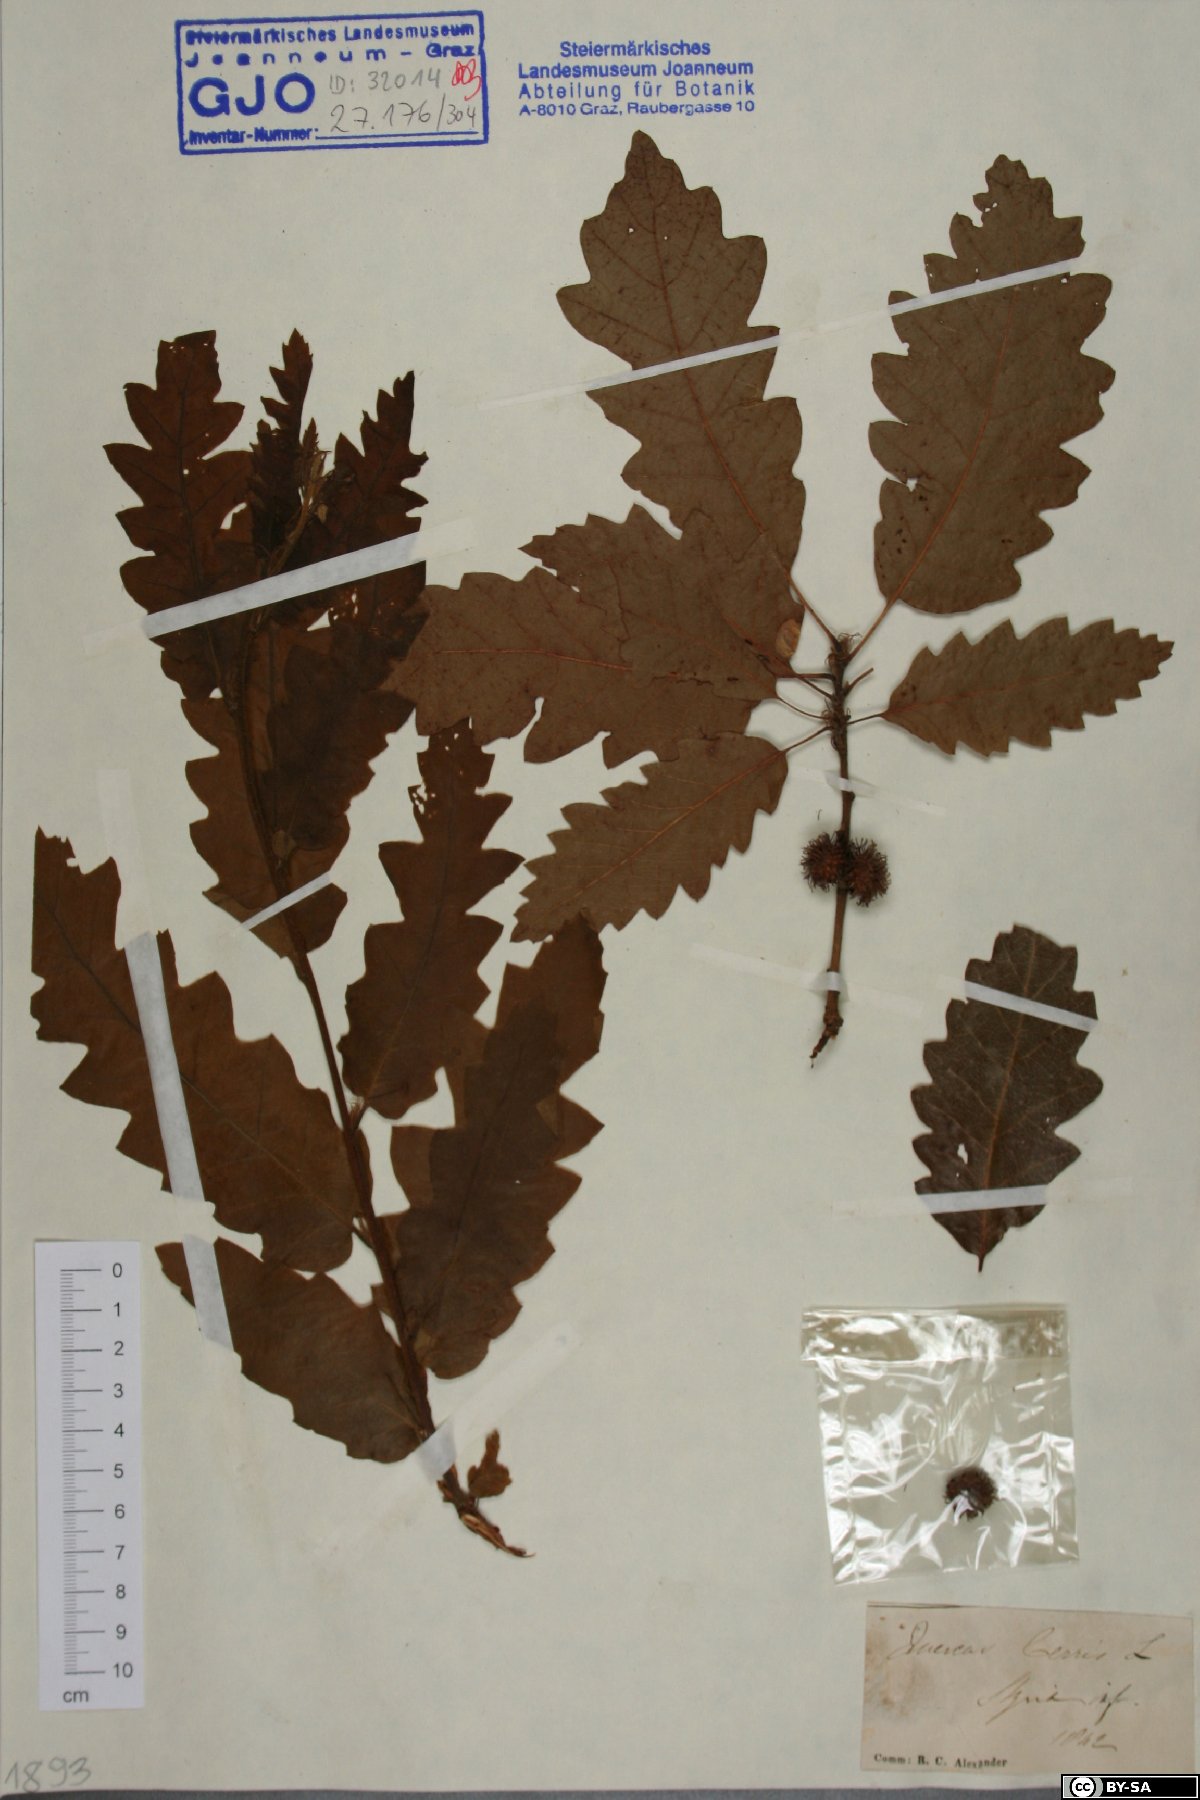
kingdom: Plantae
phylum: Tracheophyta
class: Magnoliopsida
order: Fagales
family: Fagaceae
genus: Quercus
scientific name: Quercus cerris
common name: Turkey oak
